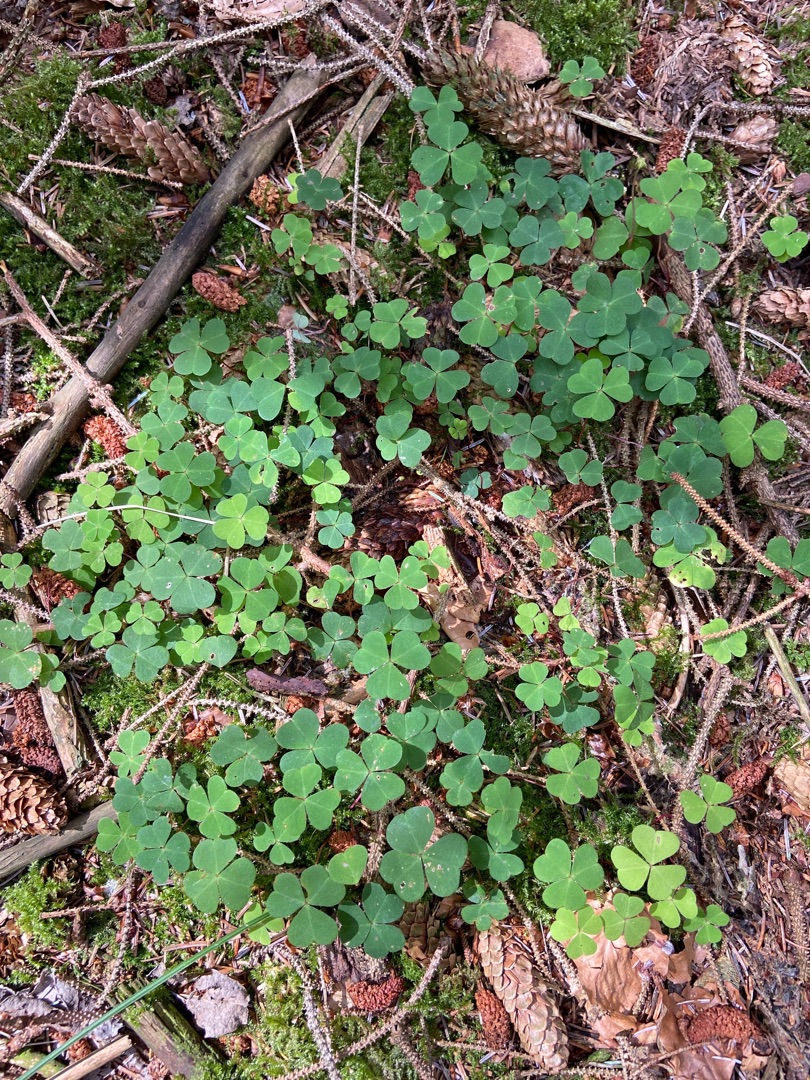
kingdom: Plantae
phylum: Tracheophyta
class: Magnoliopsida
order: Oxalidales
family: Oxalidaceae
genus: Oxalis
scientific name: Oxalis acetosella
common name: Skovsyre
